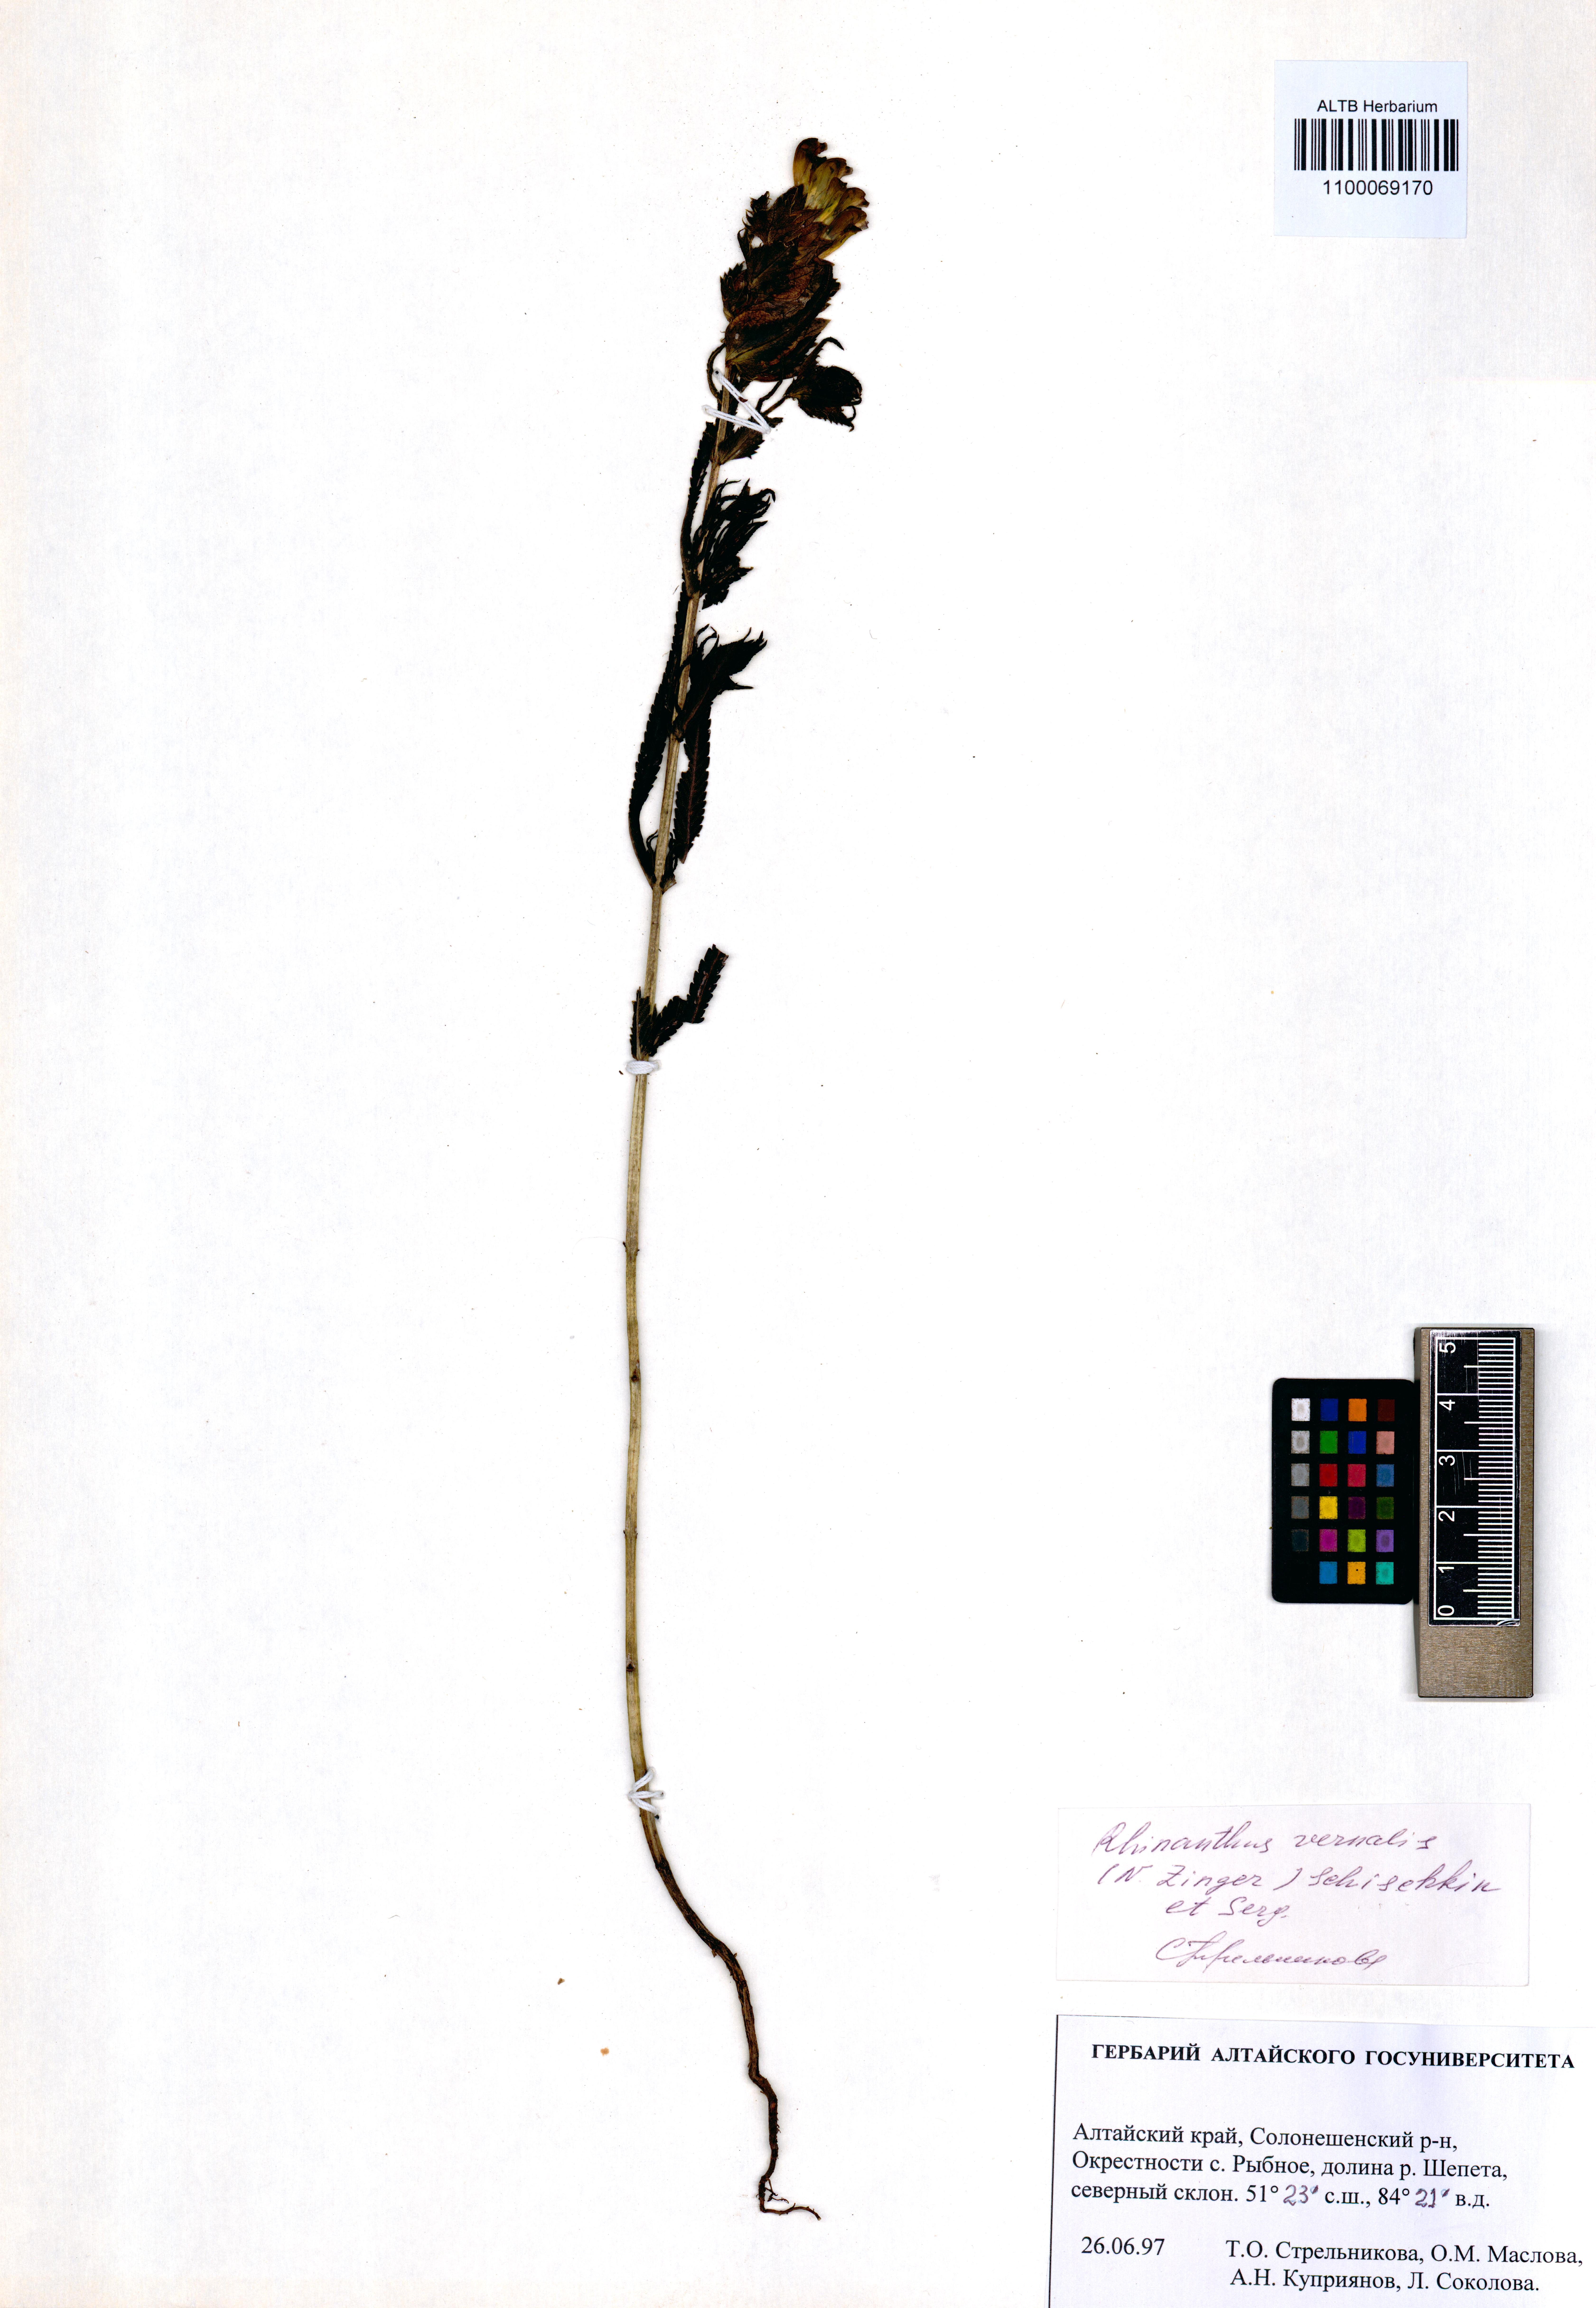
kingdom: Plantae
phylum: Tracheophyta
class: Magnoliopsida
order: Lamiales
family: Orobanchaceae
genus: Rhinanthus
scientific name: Rhinanthus serotinus
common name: Late-flowering yellow rattle
